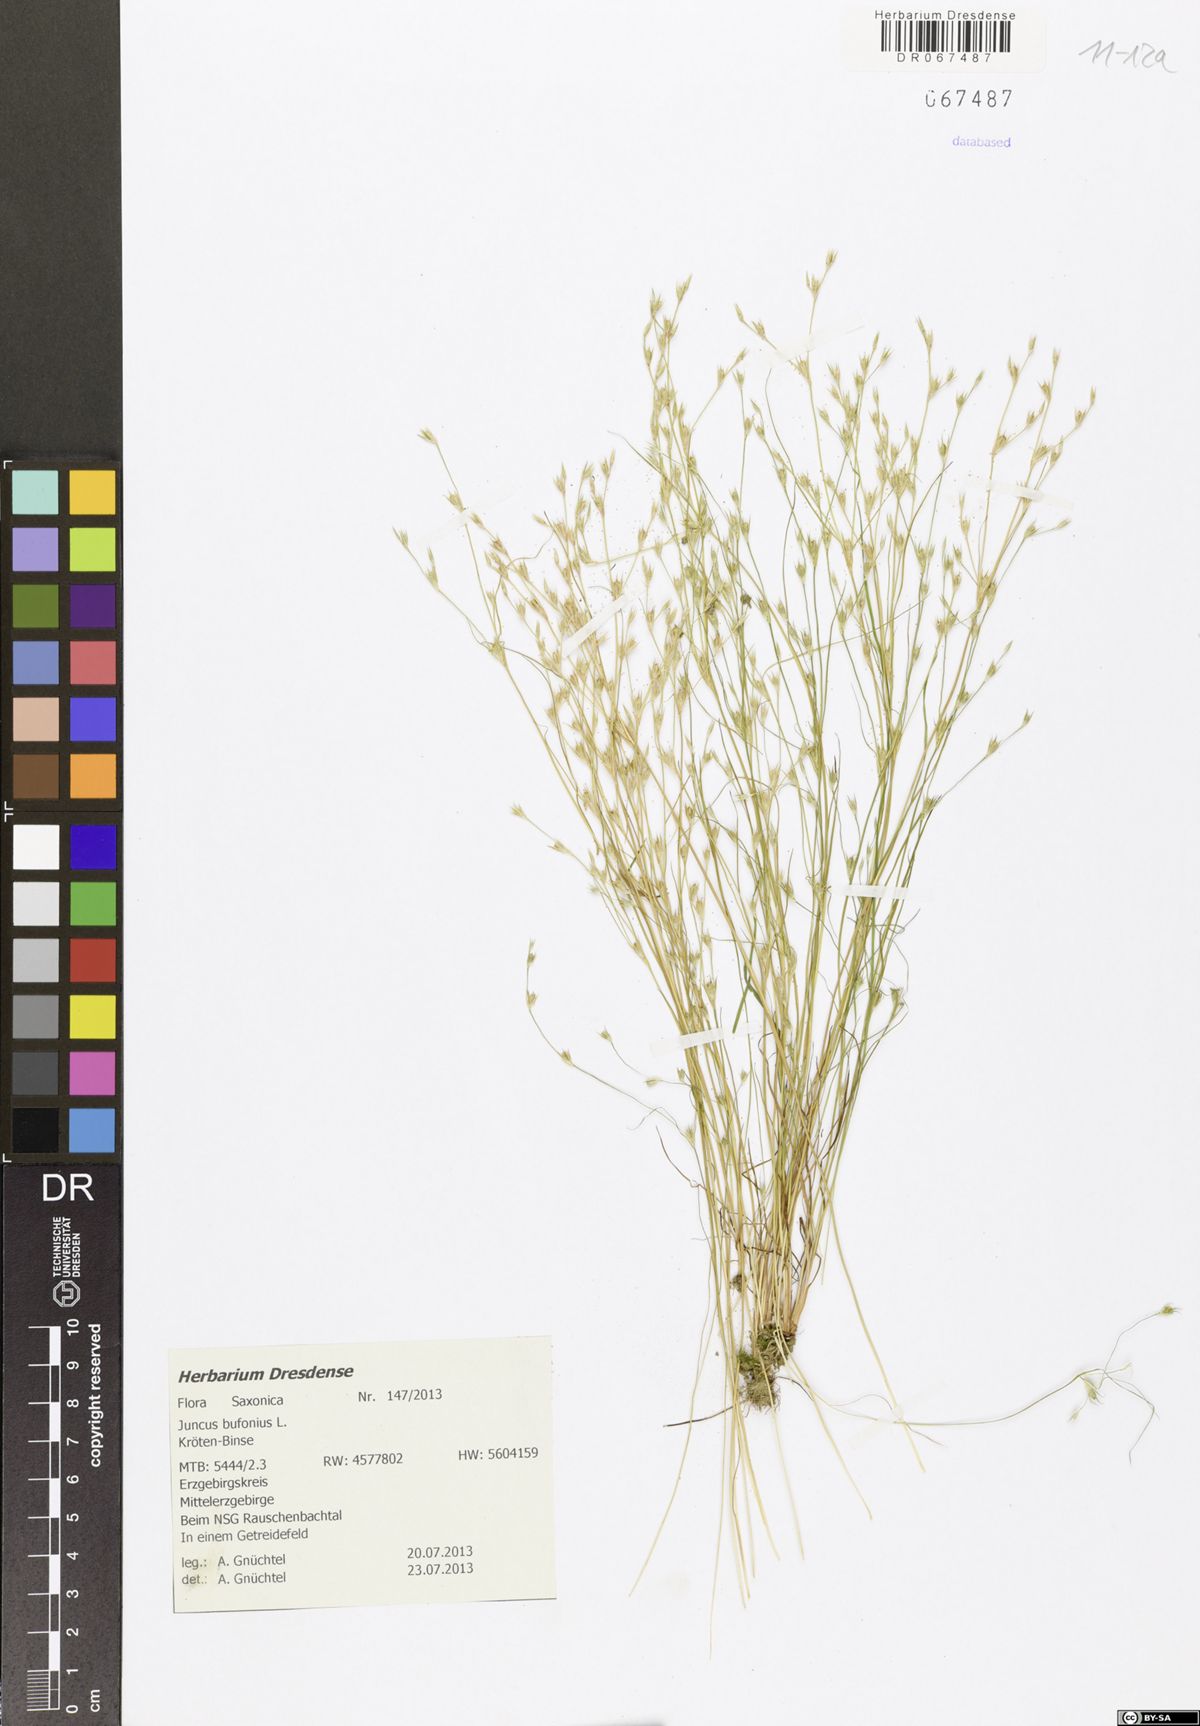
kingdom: Plantae
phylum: Tracheophyta
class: Liliopsida
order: Poales
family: Juncaceae
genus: Juncus
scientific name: Juncus bufonius
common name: Toad rush
